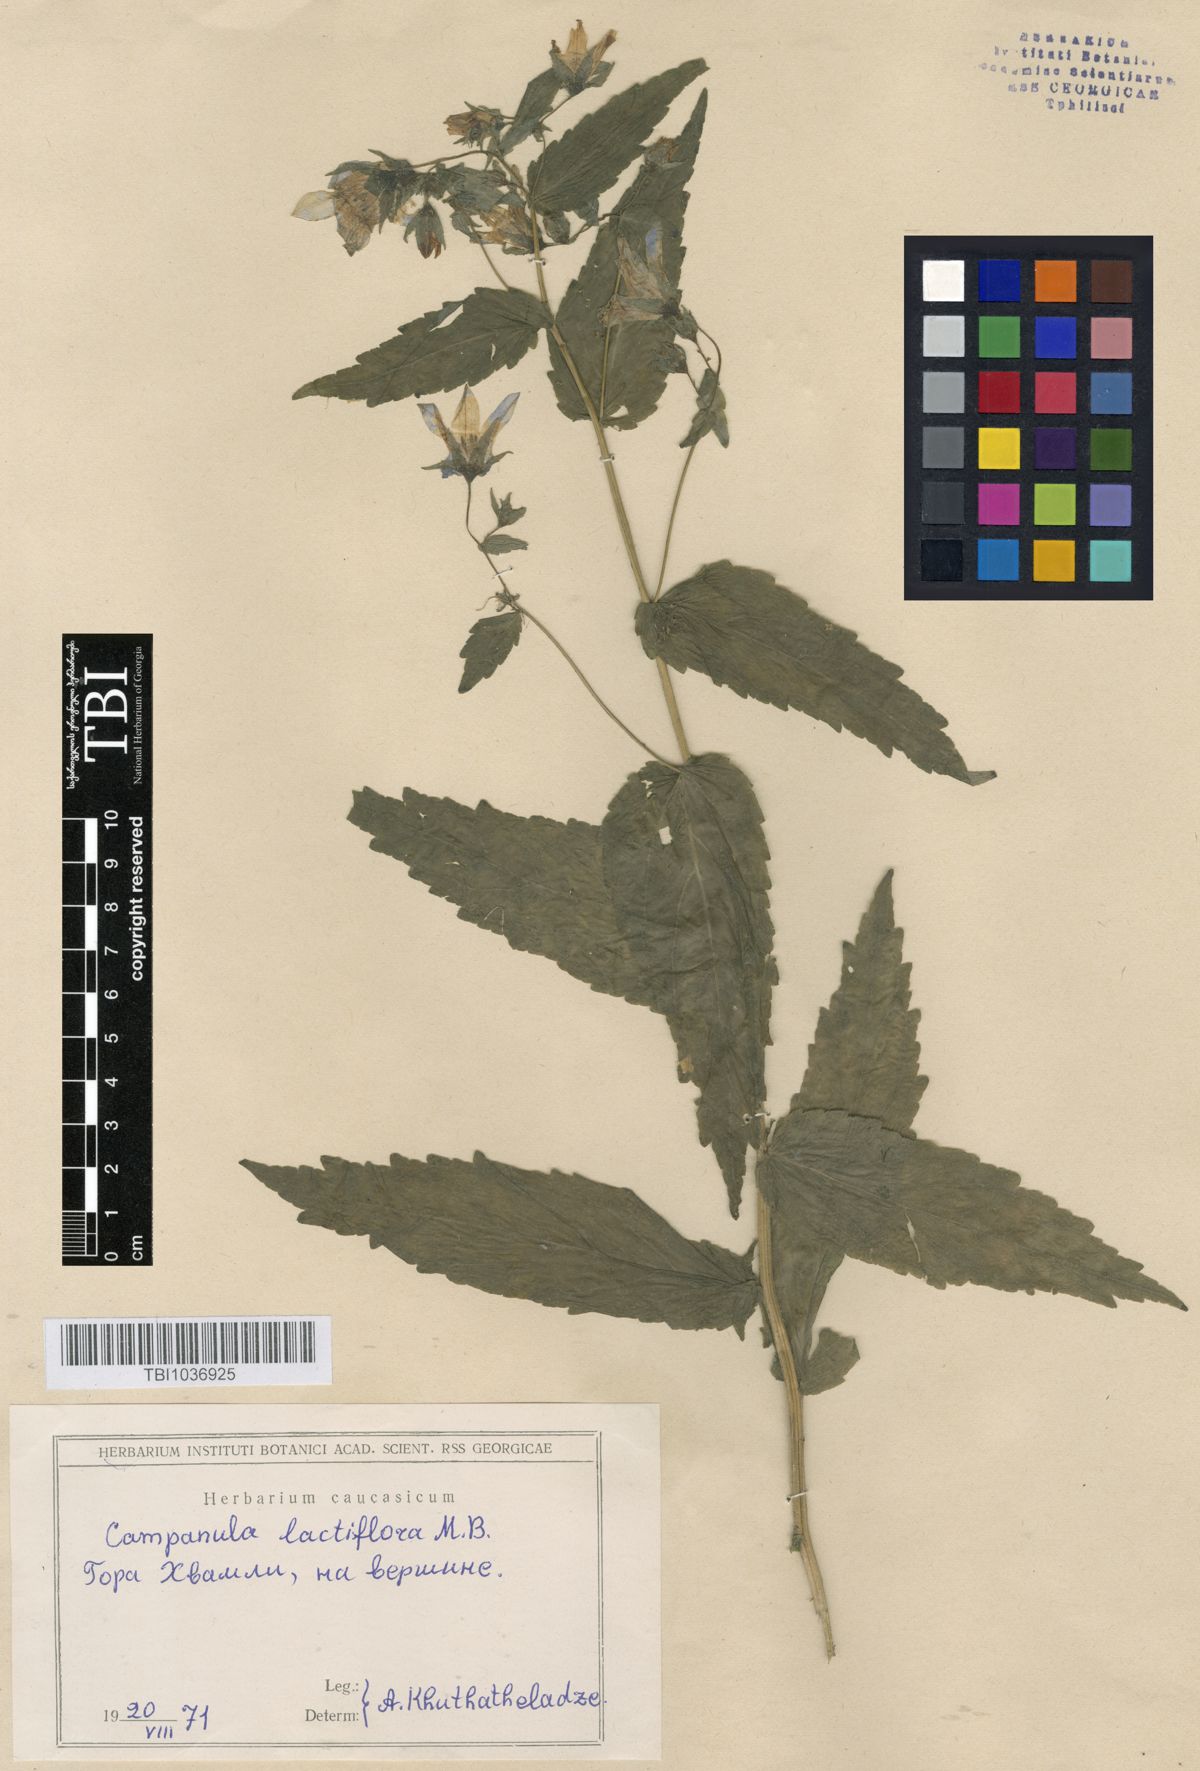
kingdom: Plantae
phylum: Tracheophyta
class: Magnoliopsida
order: Asterales
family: Campanulaceae
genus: Campanula
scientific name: Campanula lactiflora
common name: Milky bellflower
